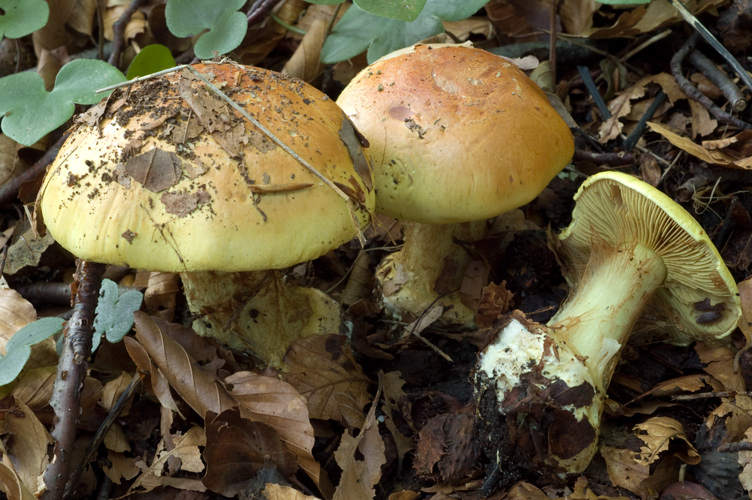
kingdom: Fungi
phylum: Basidiomycota
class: Agaricomycetes
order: Agaricales
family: Cortinariaceae
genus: Calonarius
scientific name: Calonarius elegantissimus
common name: orangegylden slørhat
